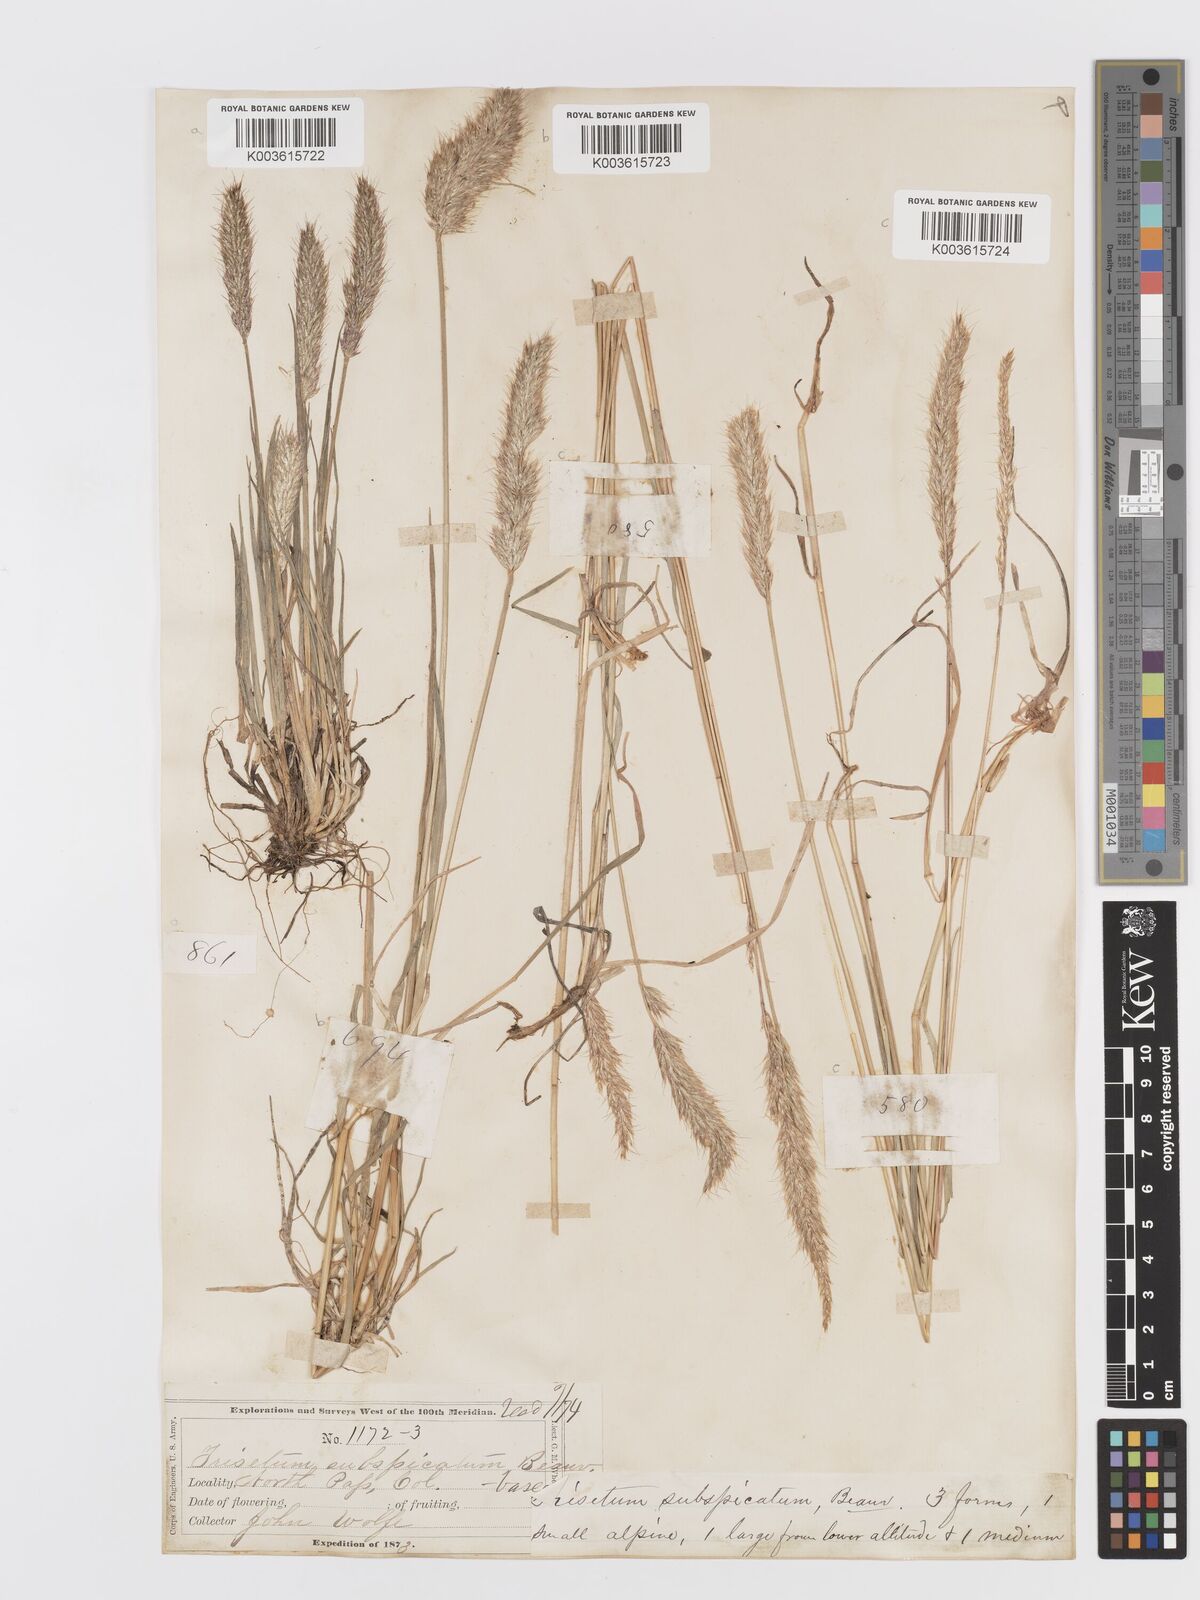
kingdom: Plantae
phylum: Tracheophyta
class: Liliopsida
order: Poales
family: Poaceae
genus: Koeleria
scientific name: Koeleria spicata
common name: Mountain trisetum
